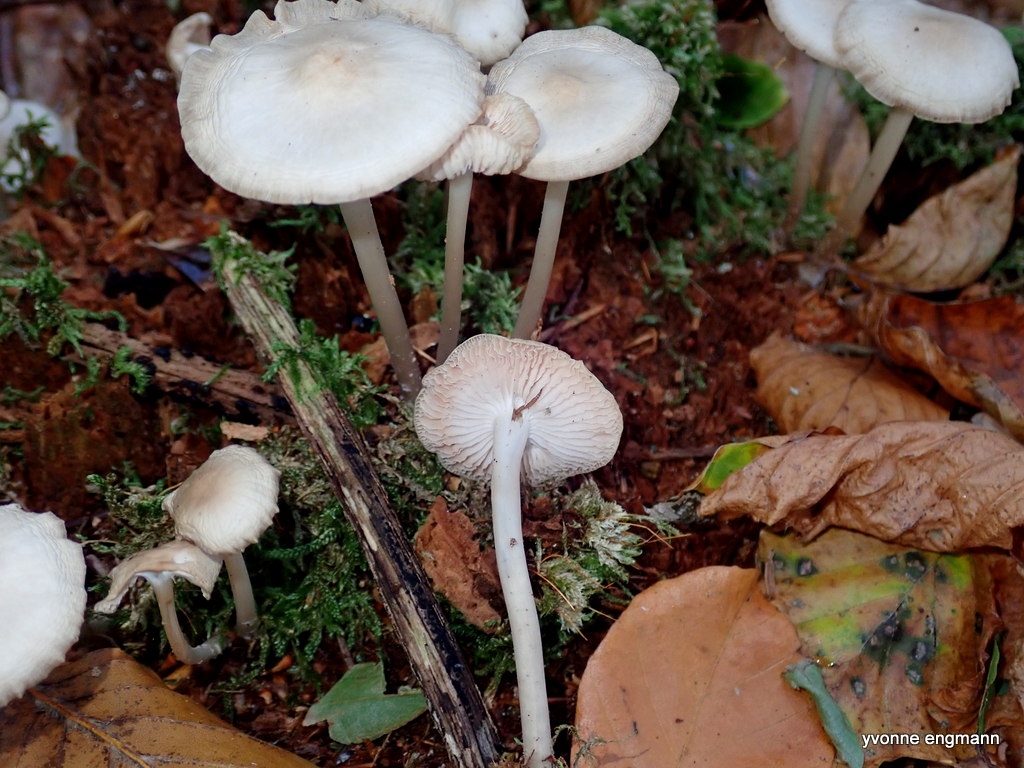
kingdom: Fungi
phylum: Basidiomycota
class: Agaricomycetes
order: Agaricales
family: Mycenaceae
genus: Mycena
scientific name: Mycena galericulata
